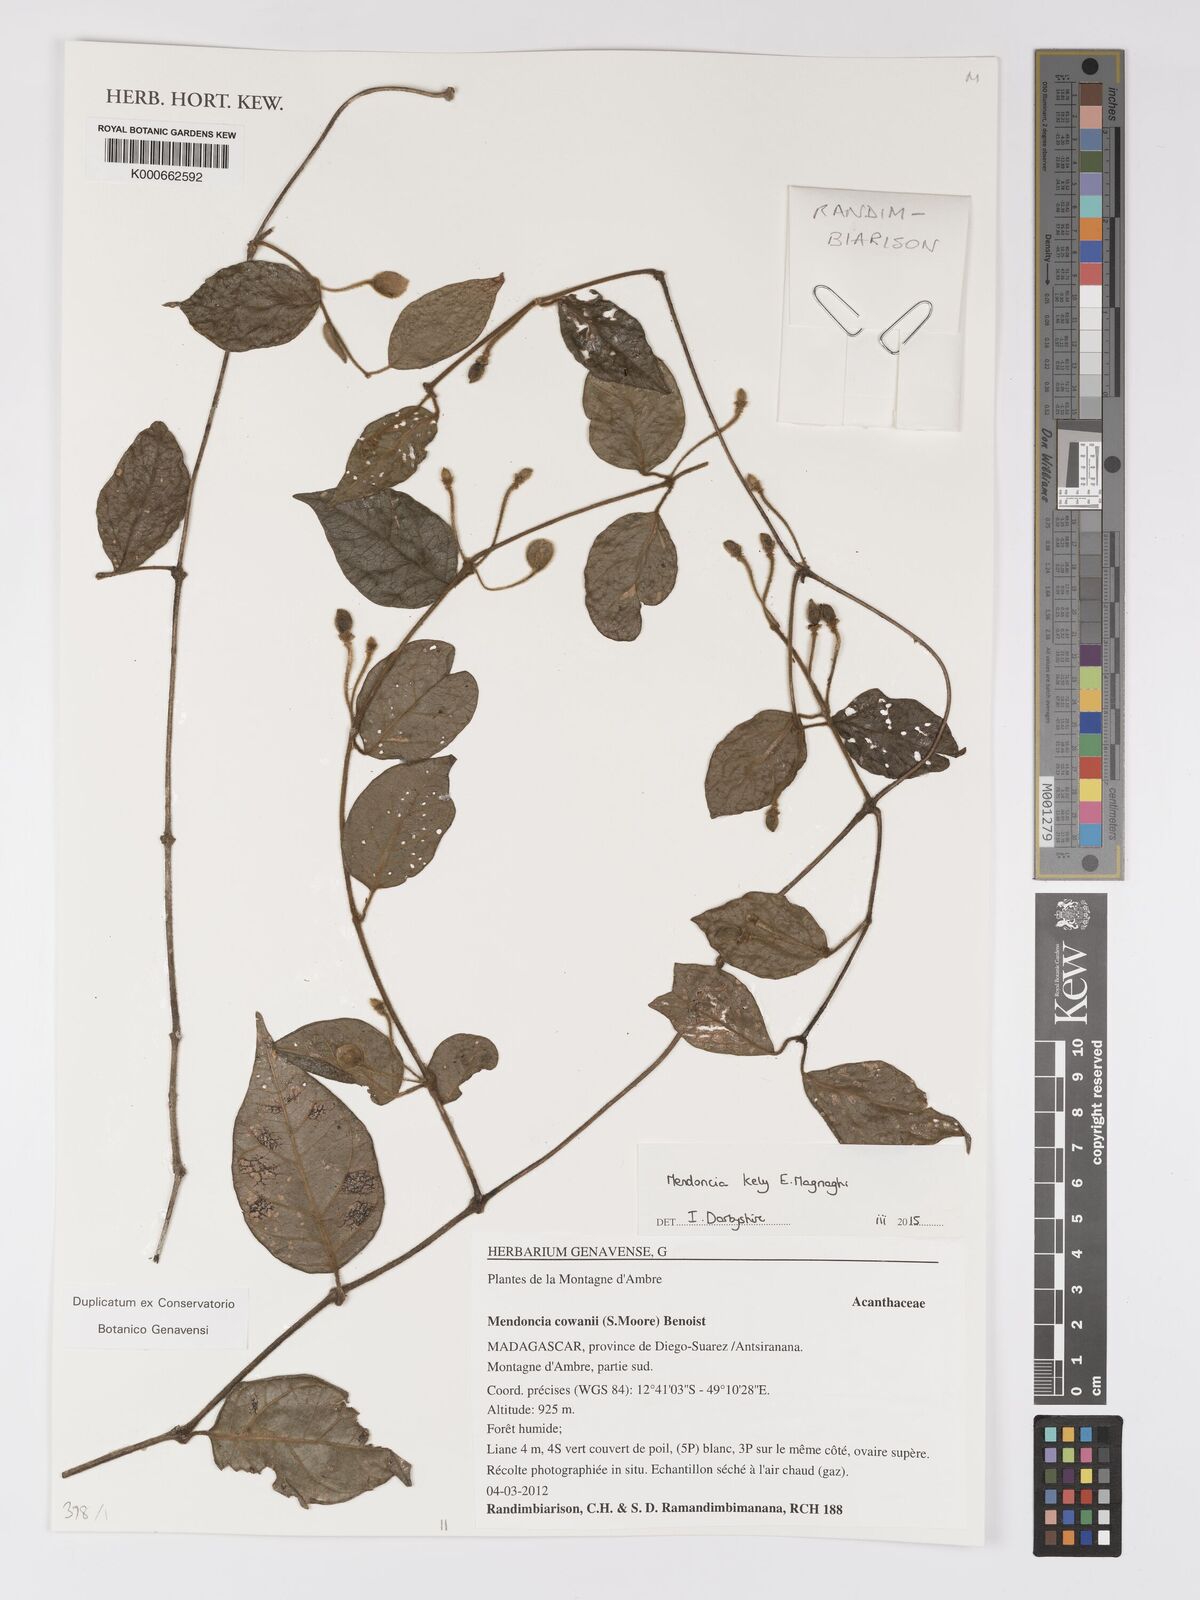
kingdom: Plantae
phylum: Tracheophyta
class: Magnoliopsida
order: Lamiales
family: Acanthaceae
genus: Mendoncia
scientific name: Mendoncia kely
